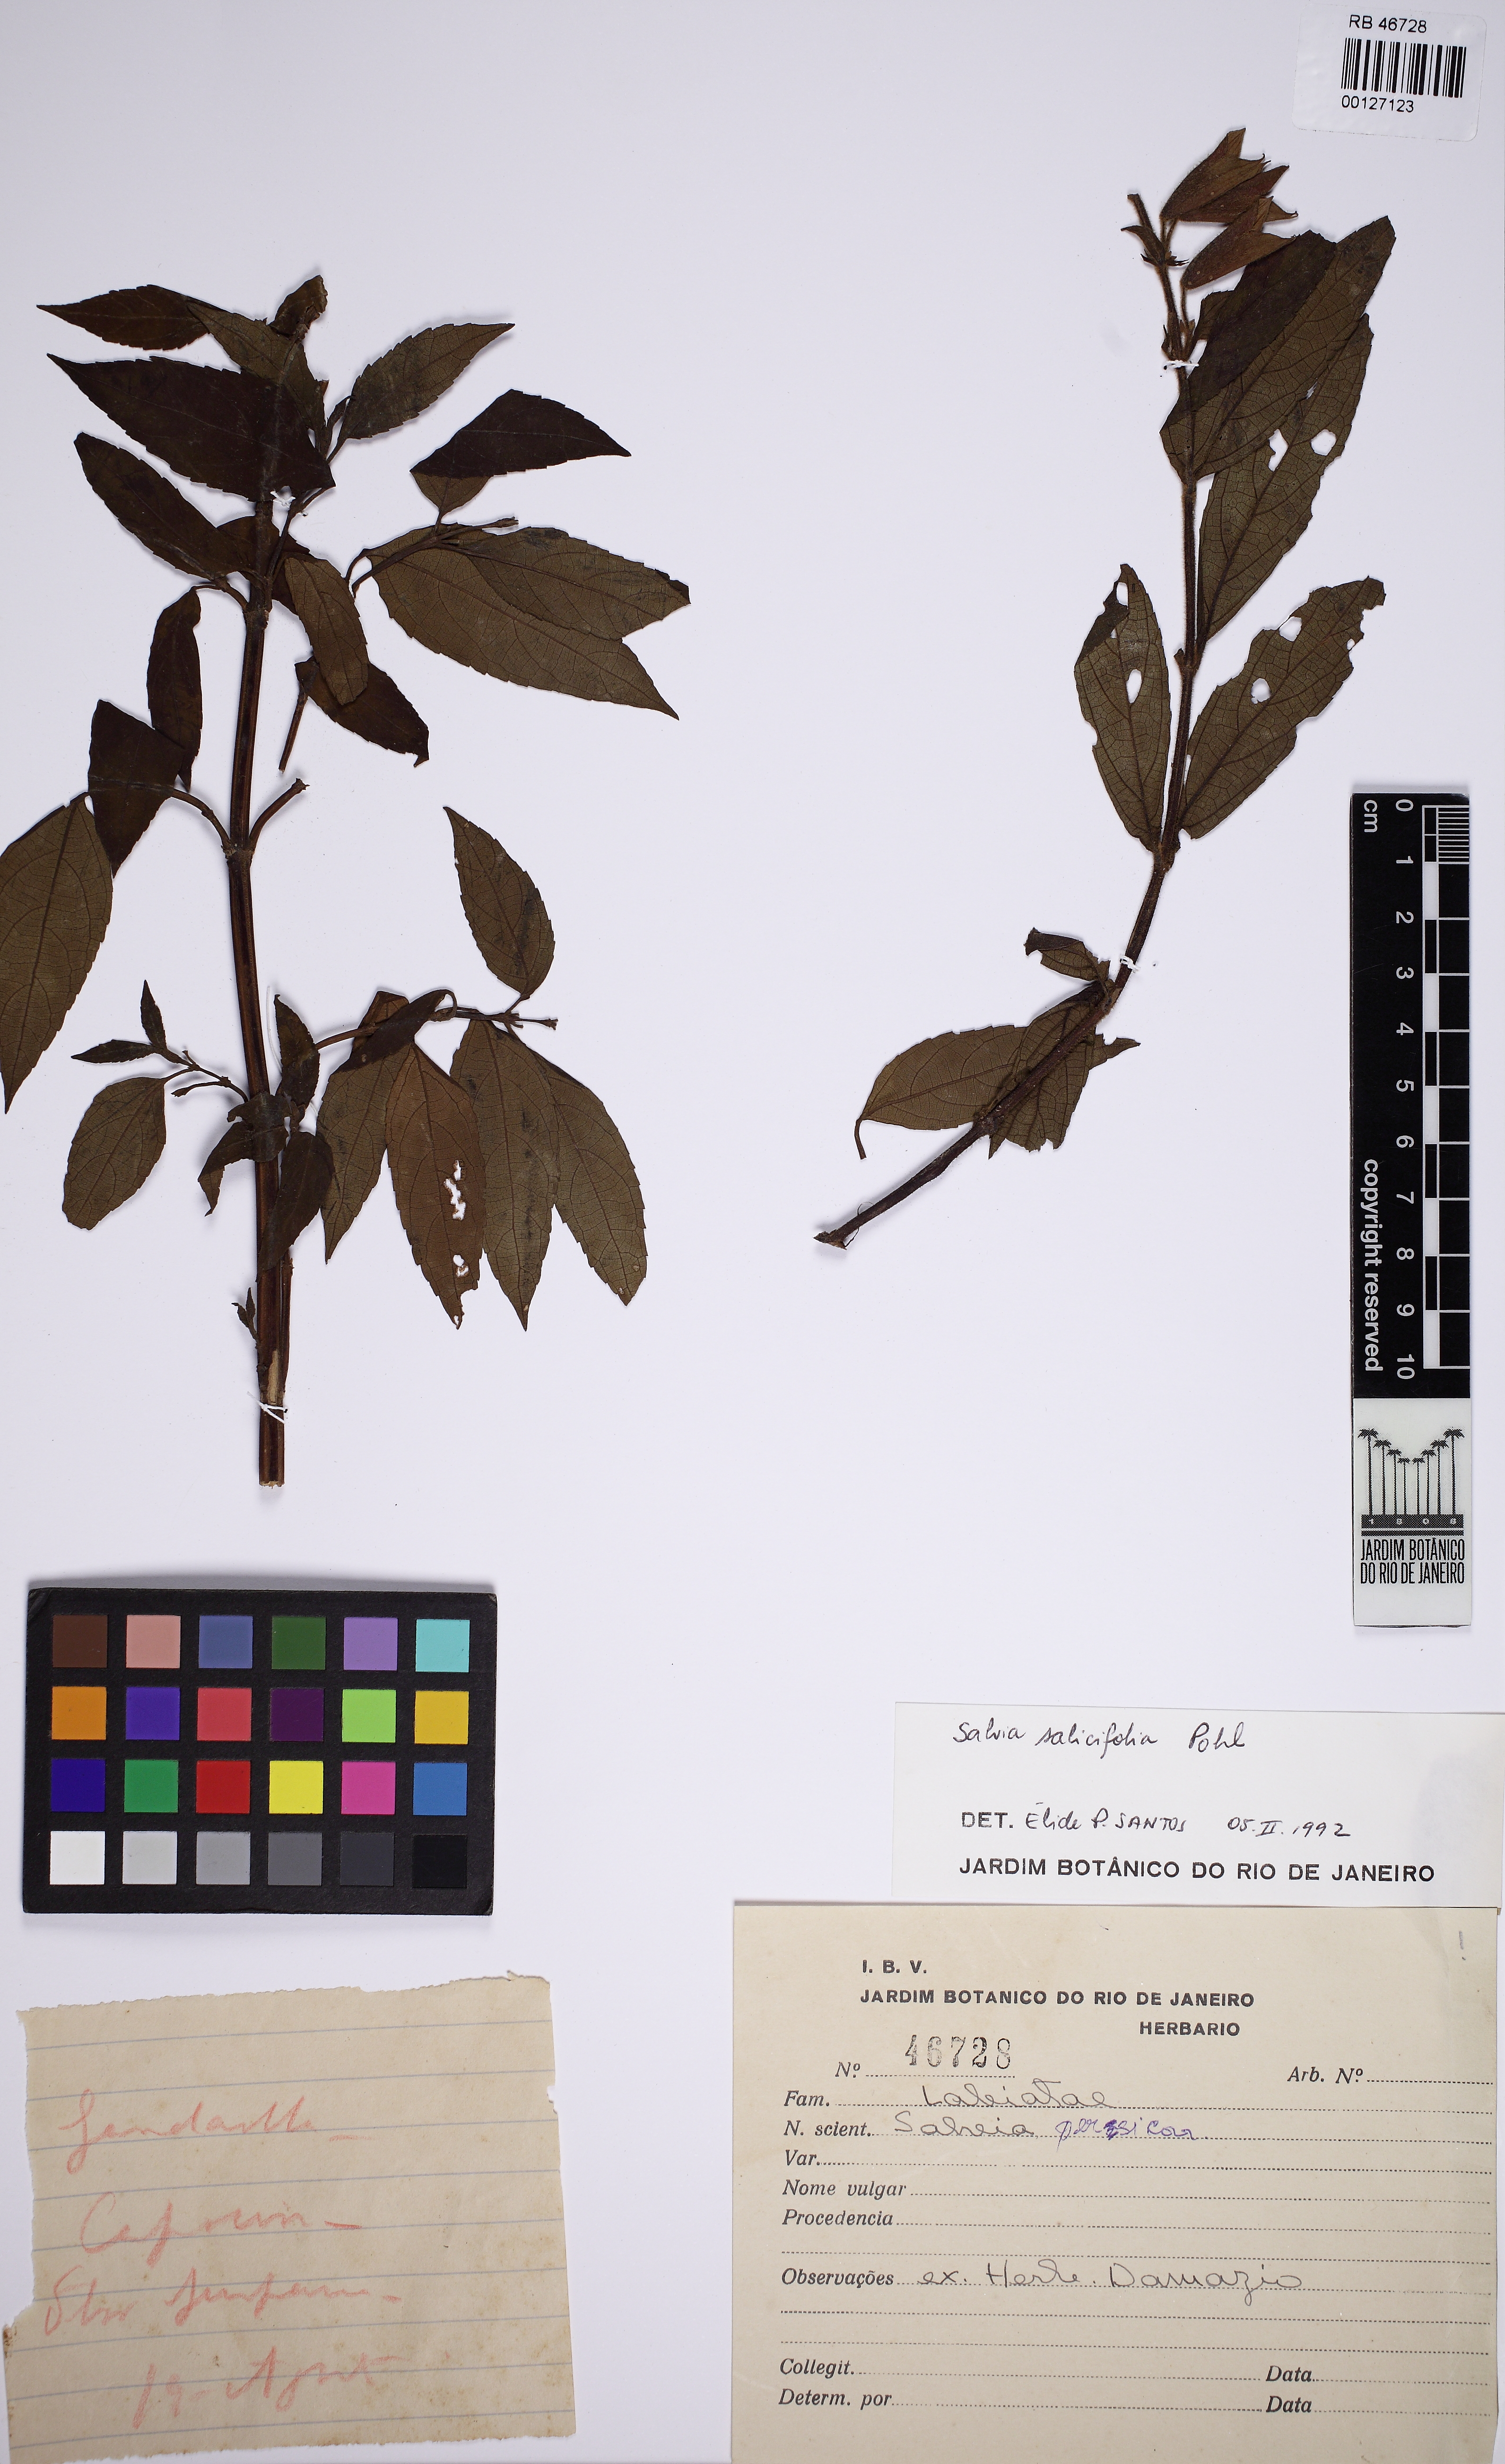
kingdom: Plantae
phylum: Tracheophyta
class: Magnoliopsida
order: Lamiales
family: Lamiaceae
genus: Salvia
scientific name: Salvia salicifolia
